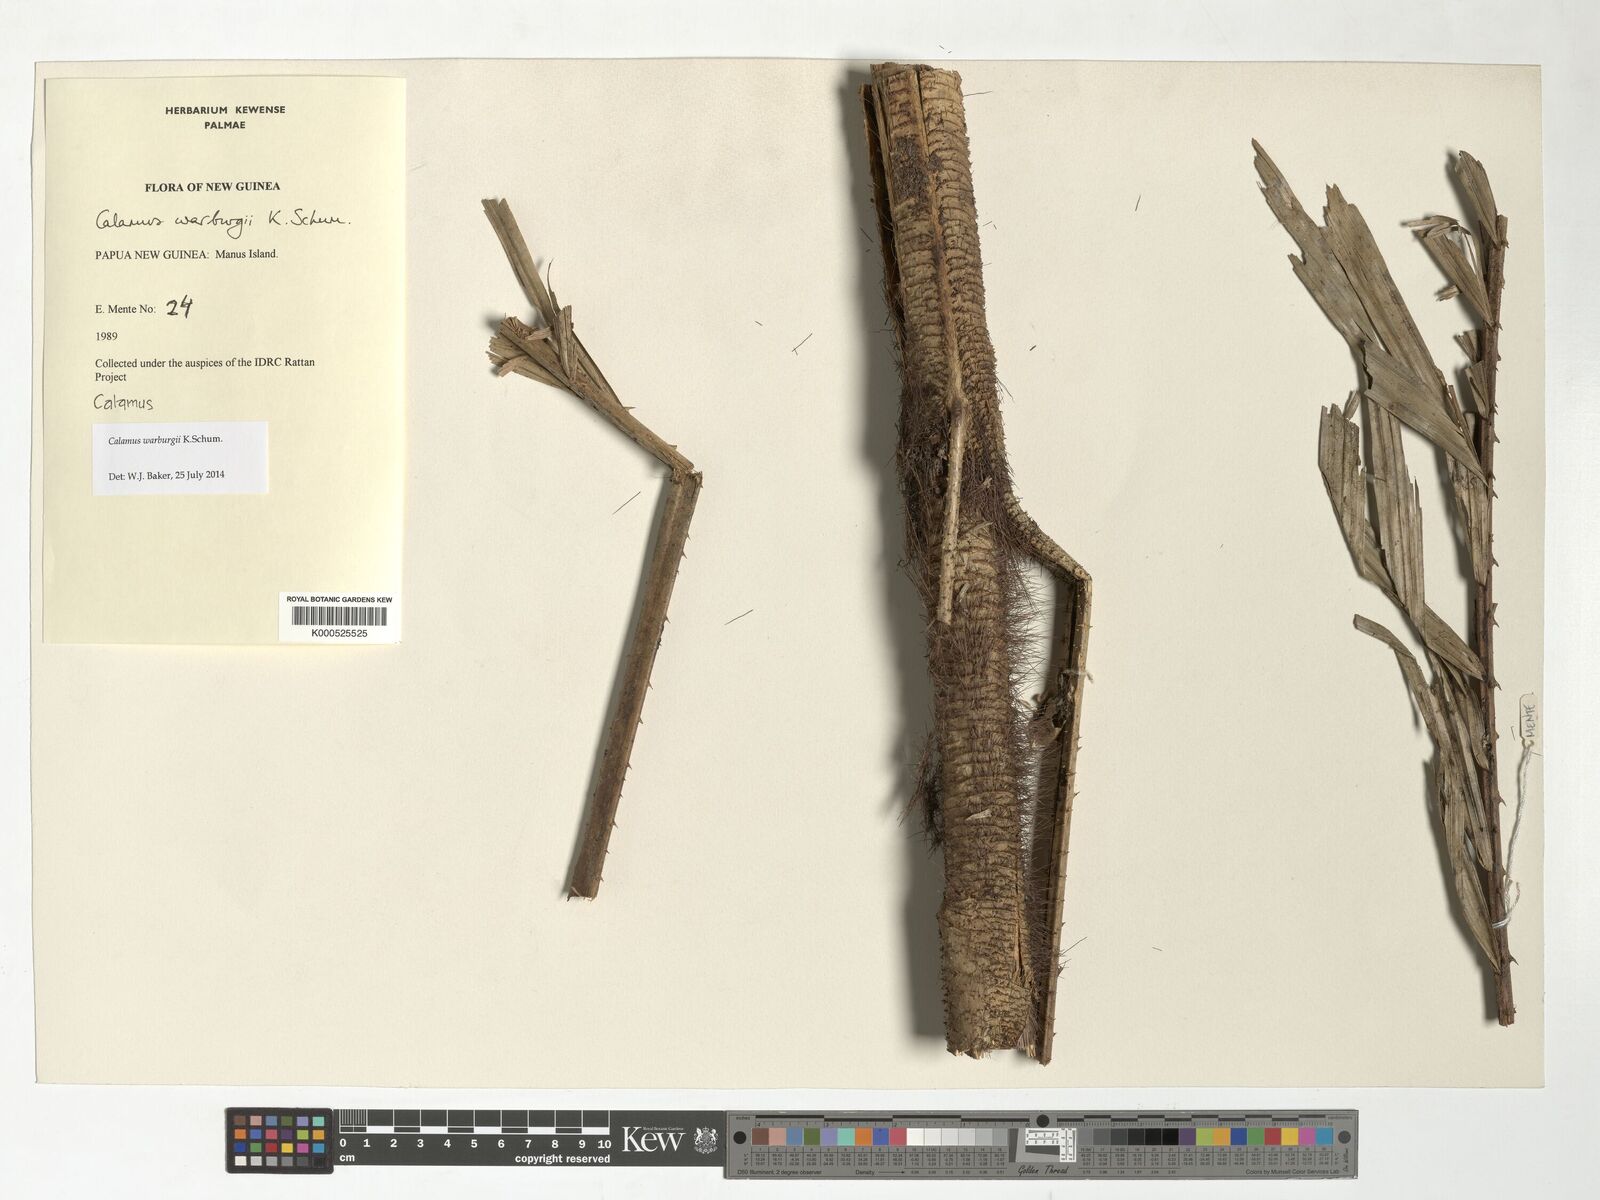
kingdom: Plantae
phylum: Tracheophyta
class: Liliopsida
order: Arecales
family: Arecaceae
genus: Calamus
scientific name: Calamus warburgii
